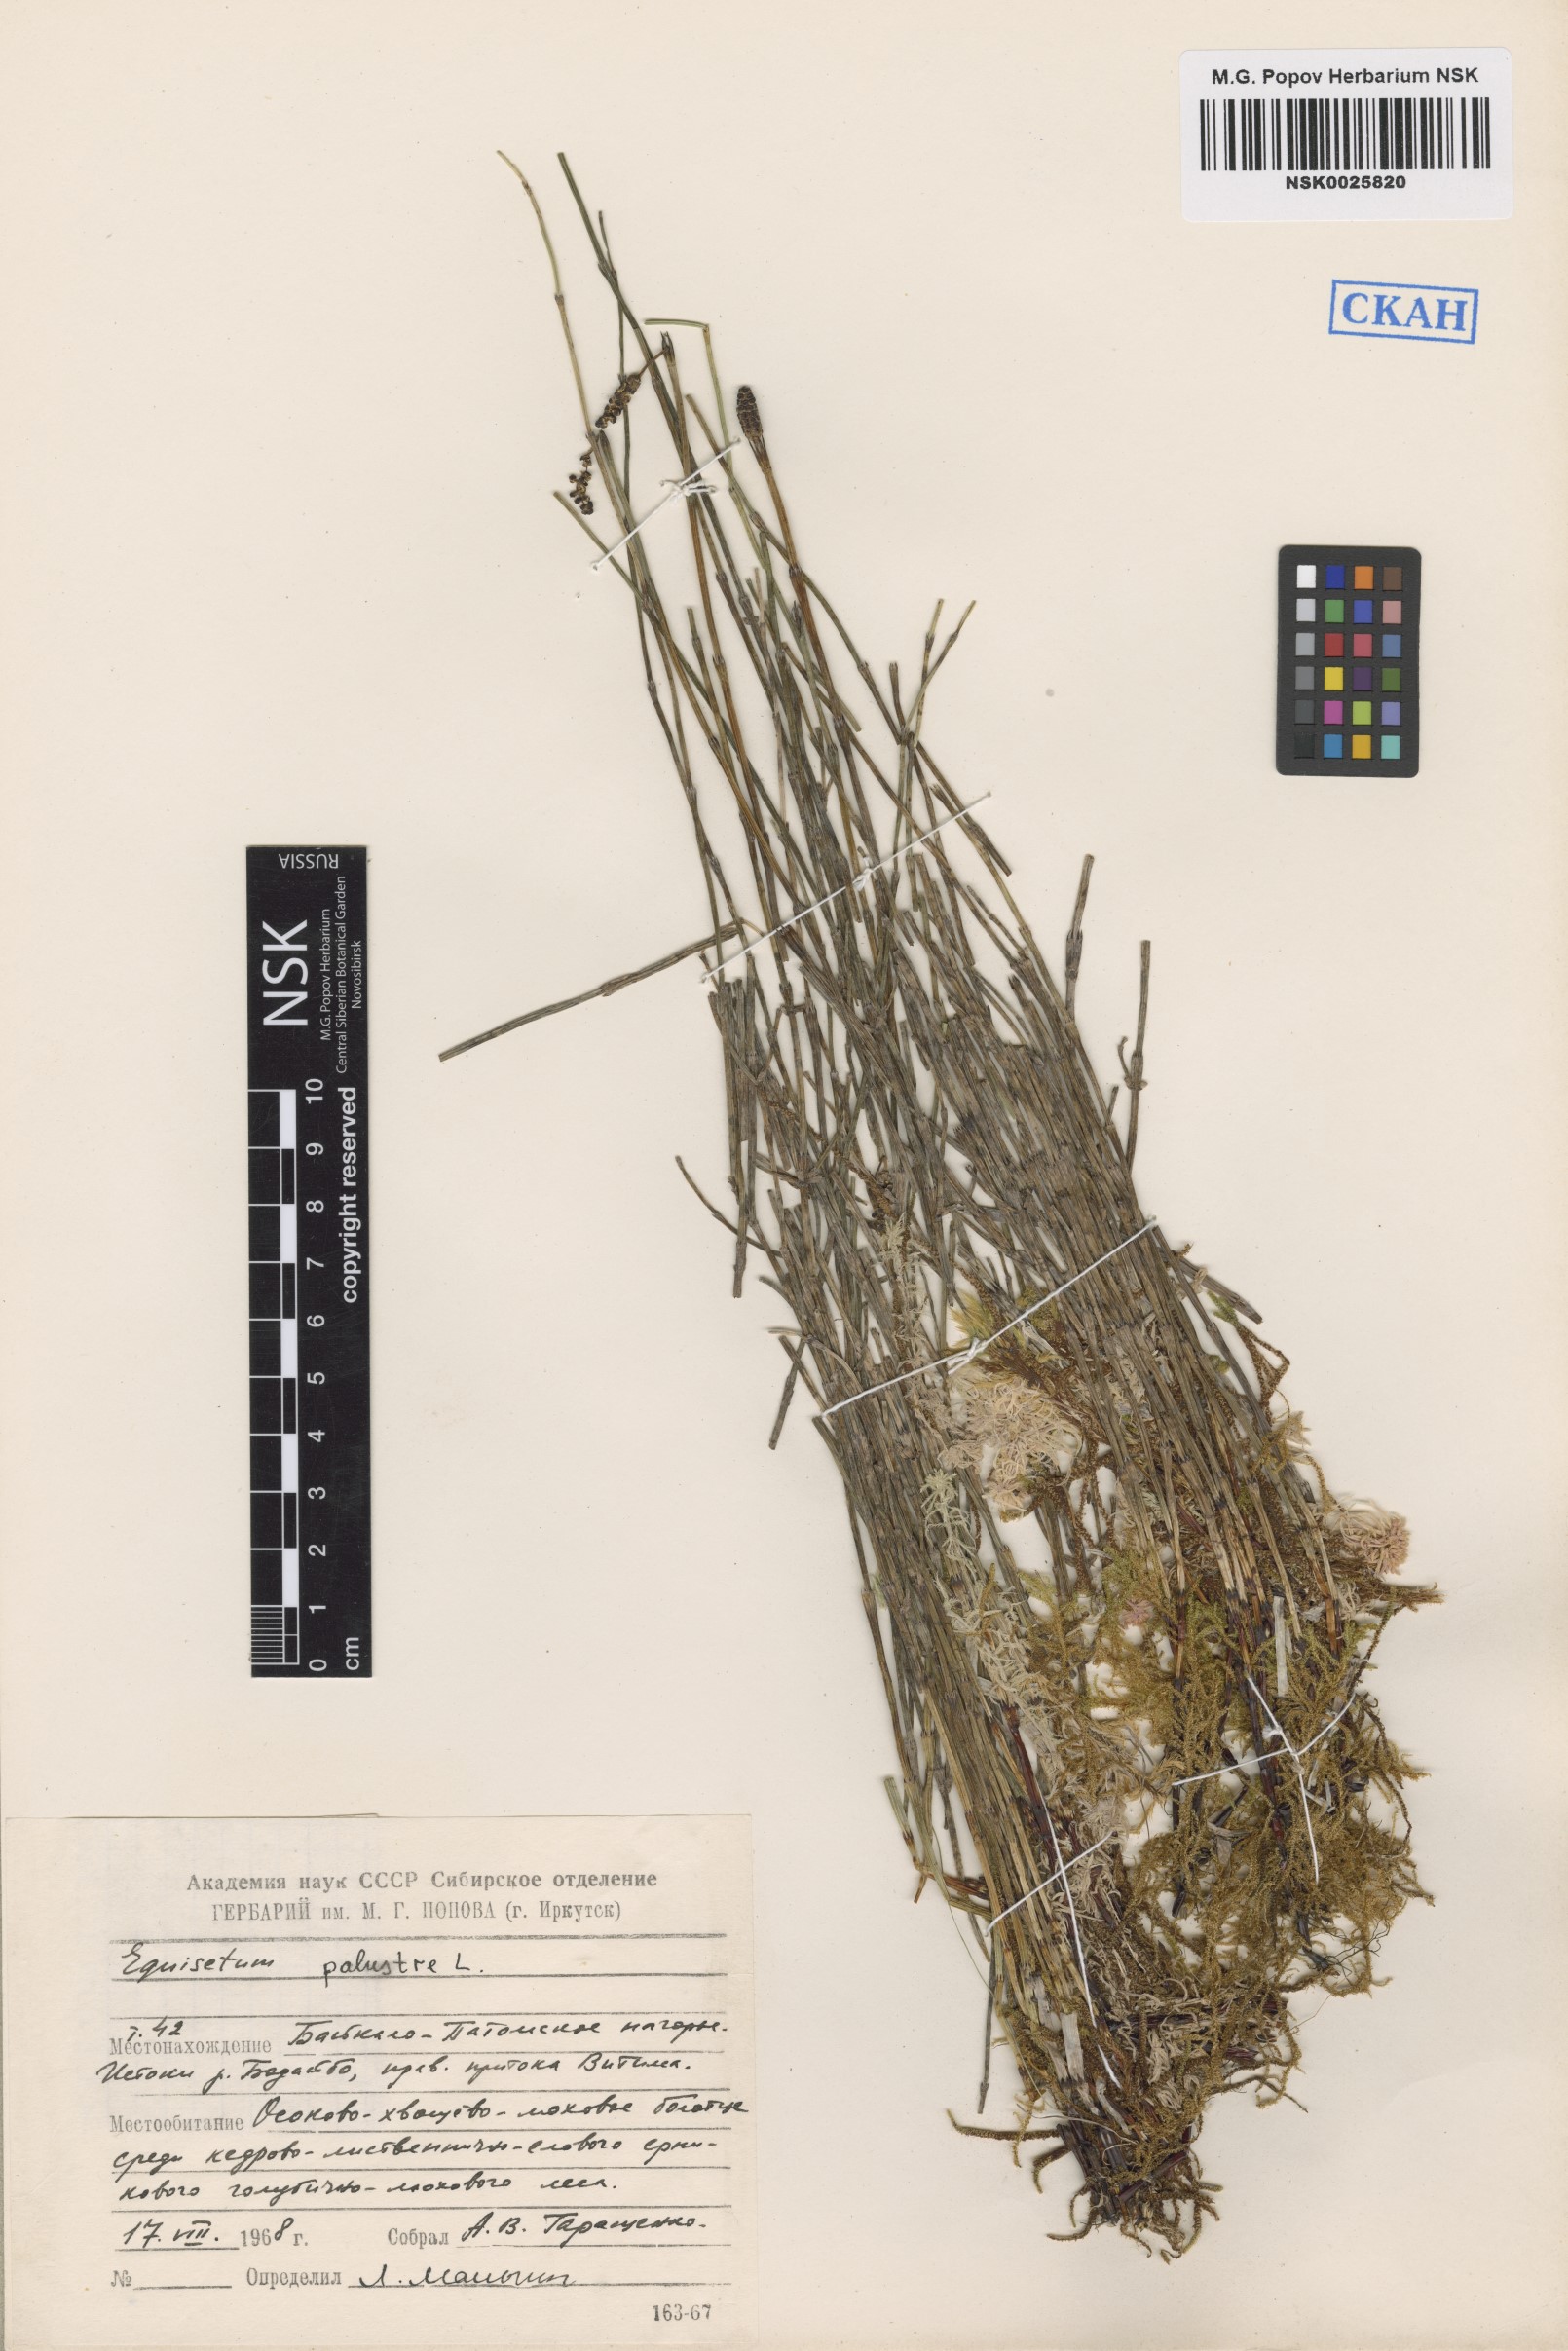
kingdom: Plantae
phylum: Tracheophyta
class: Polypodiopsida
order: Equisetales
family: Equisetaceae
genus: Equisetum
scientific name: Equisetum palustre
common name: Marsh horsetail
